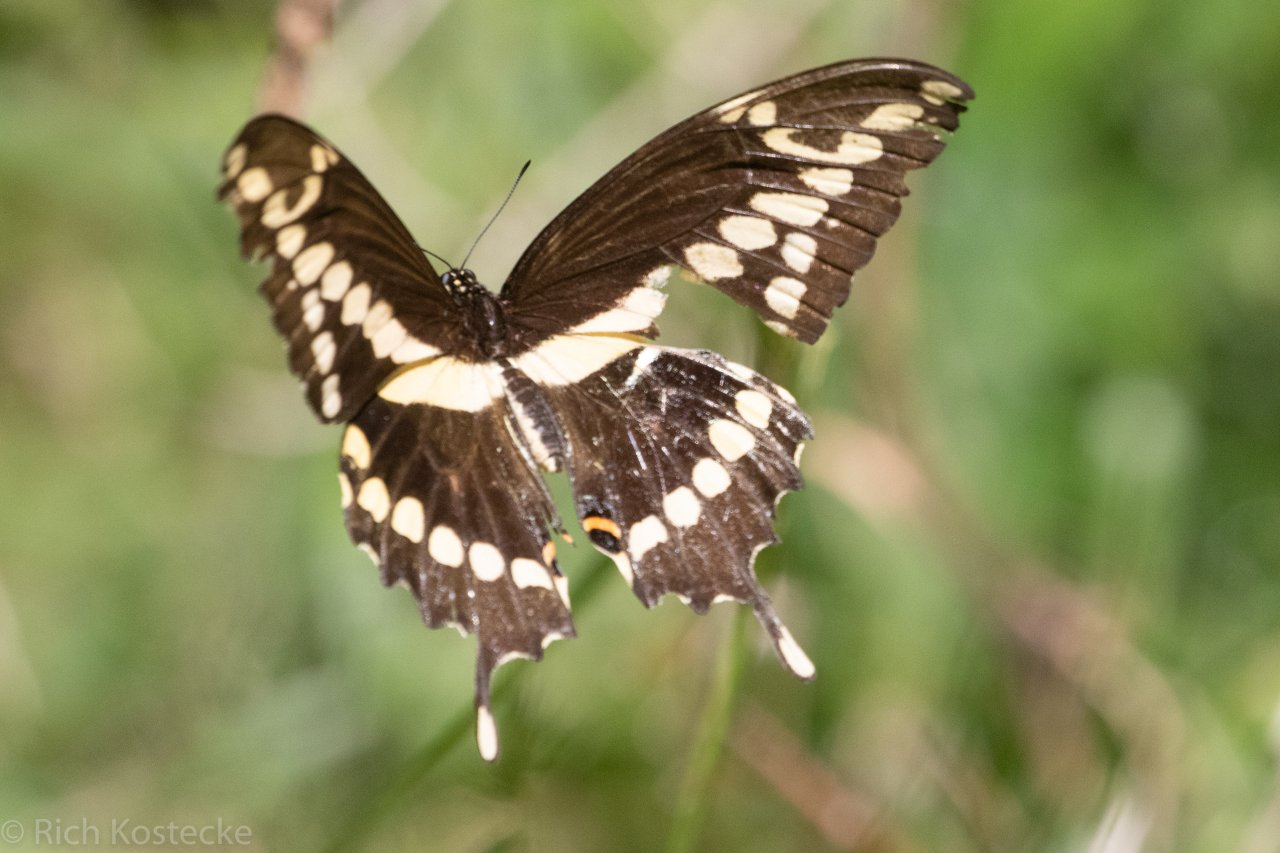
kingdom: Animalia
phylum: Arthropoda
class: Insecta
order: Lepidoptera
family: Papilionidae
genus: Papilio
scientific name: Papilio cresphontes
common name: Eastern Giant Swallowtail
